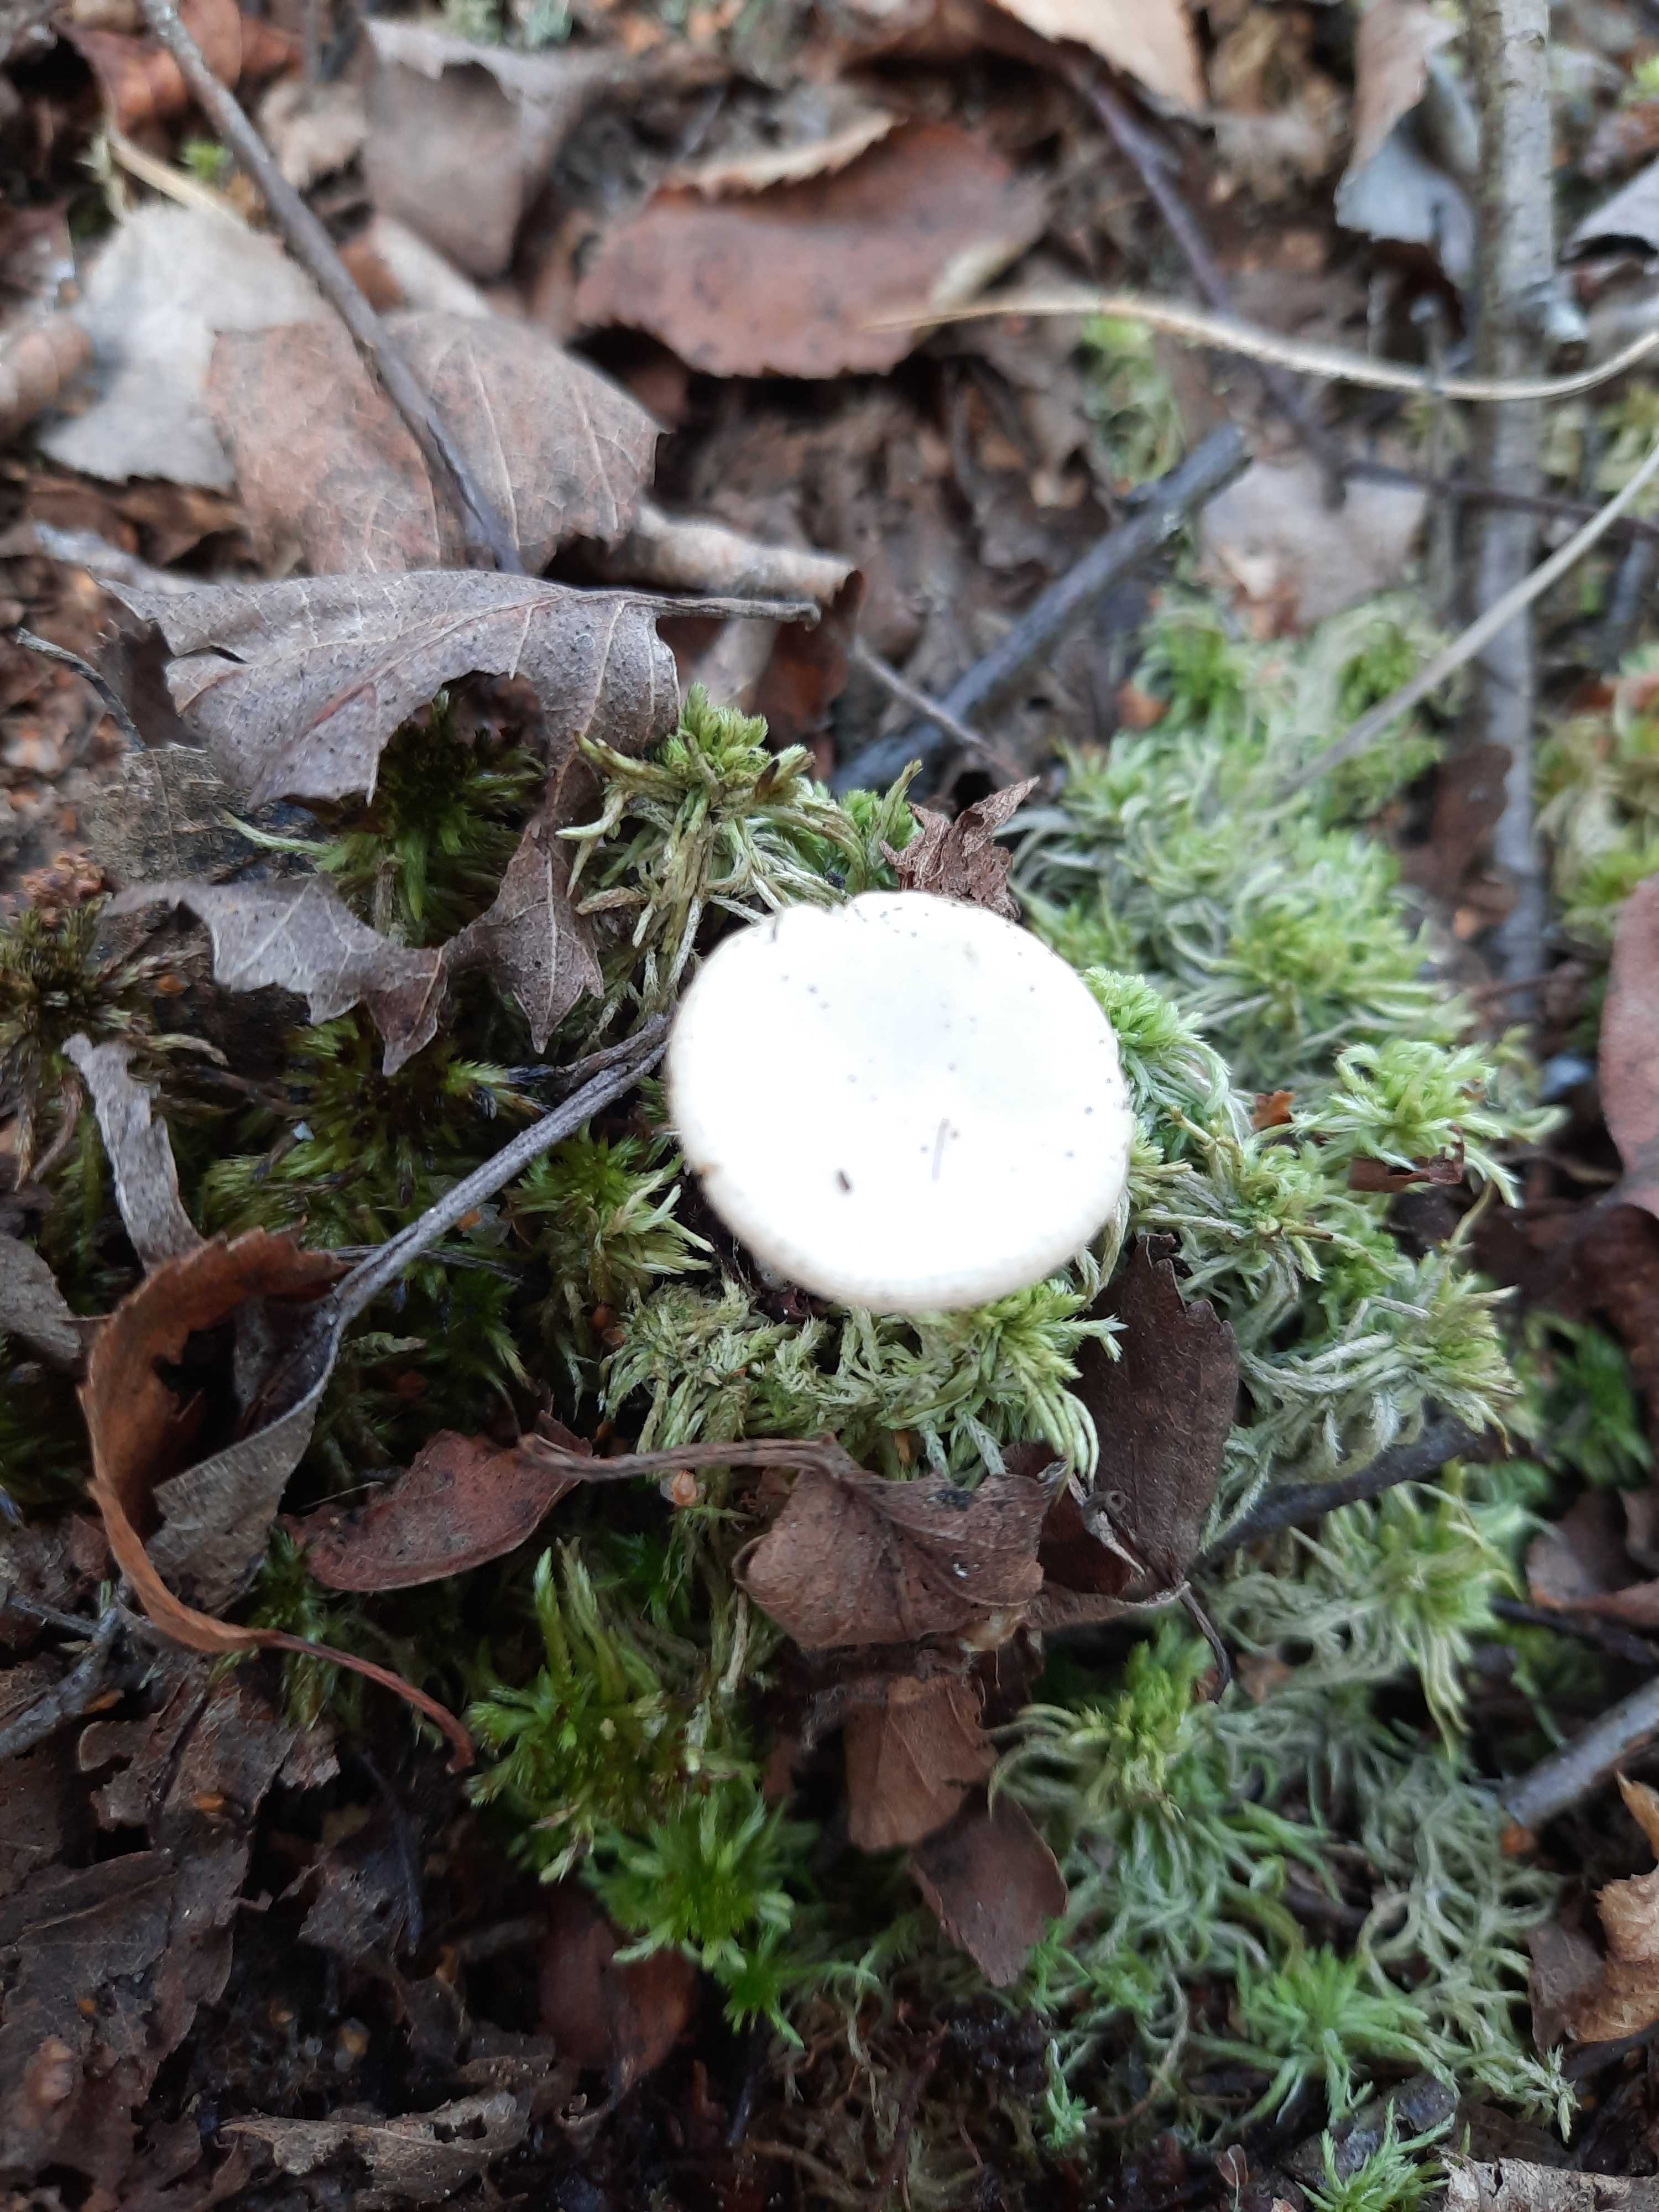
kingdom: Fungi
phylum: Basidiomycota
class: Agaricomycetes
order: Russulales
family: Russulaceae
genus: Russula
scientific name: Russula betularum
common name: bleg gift-skørhat
